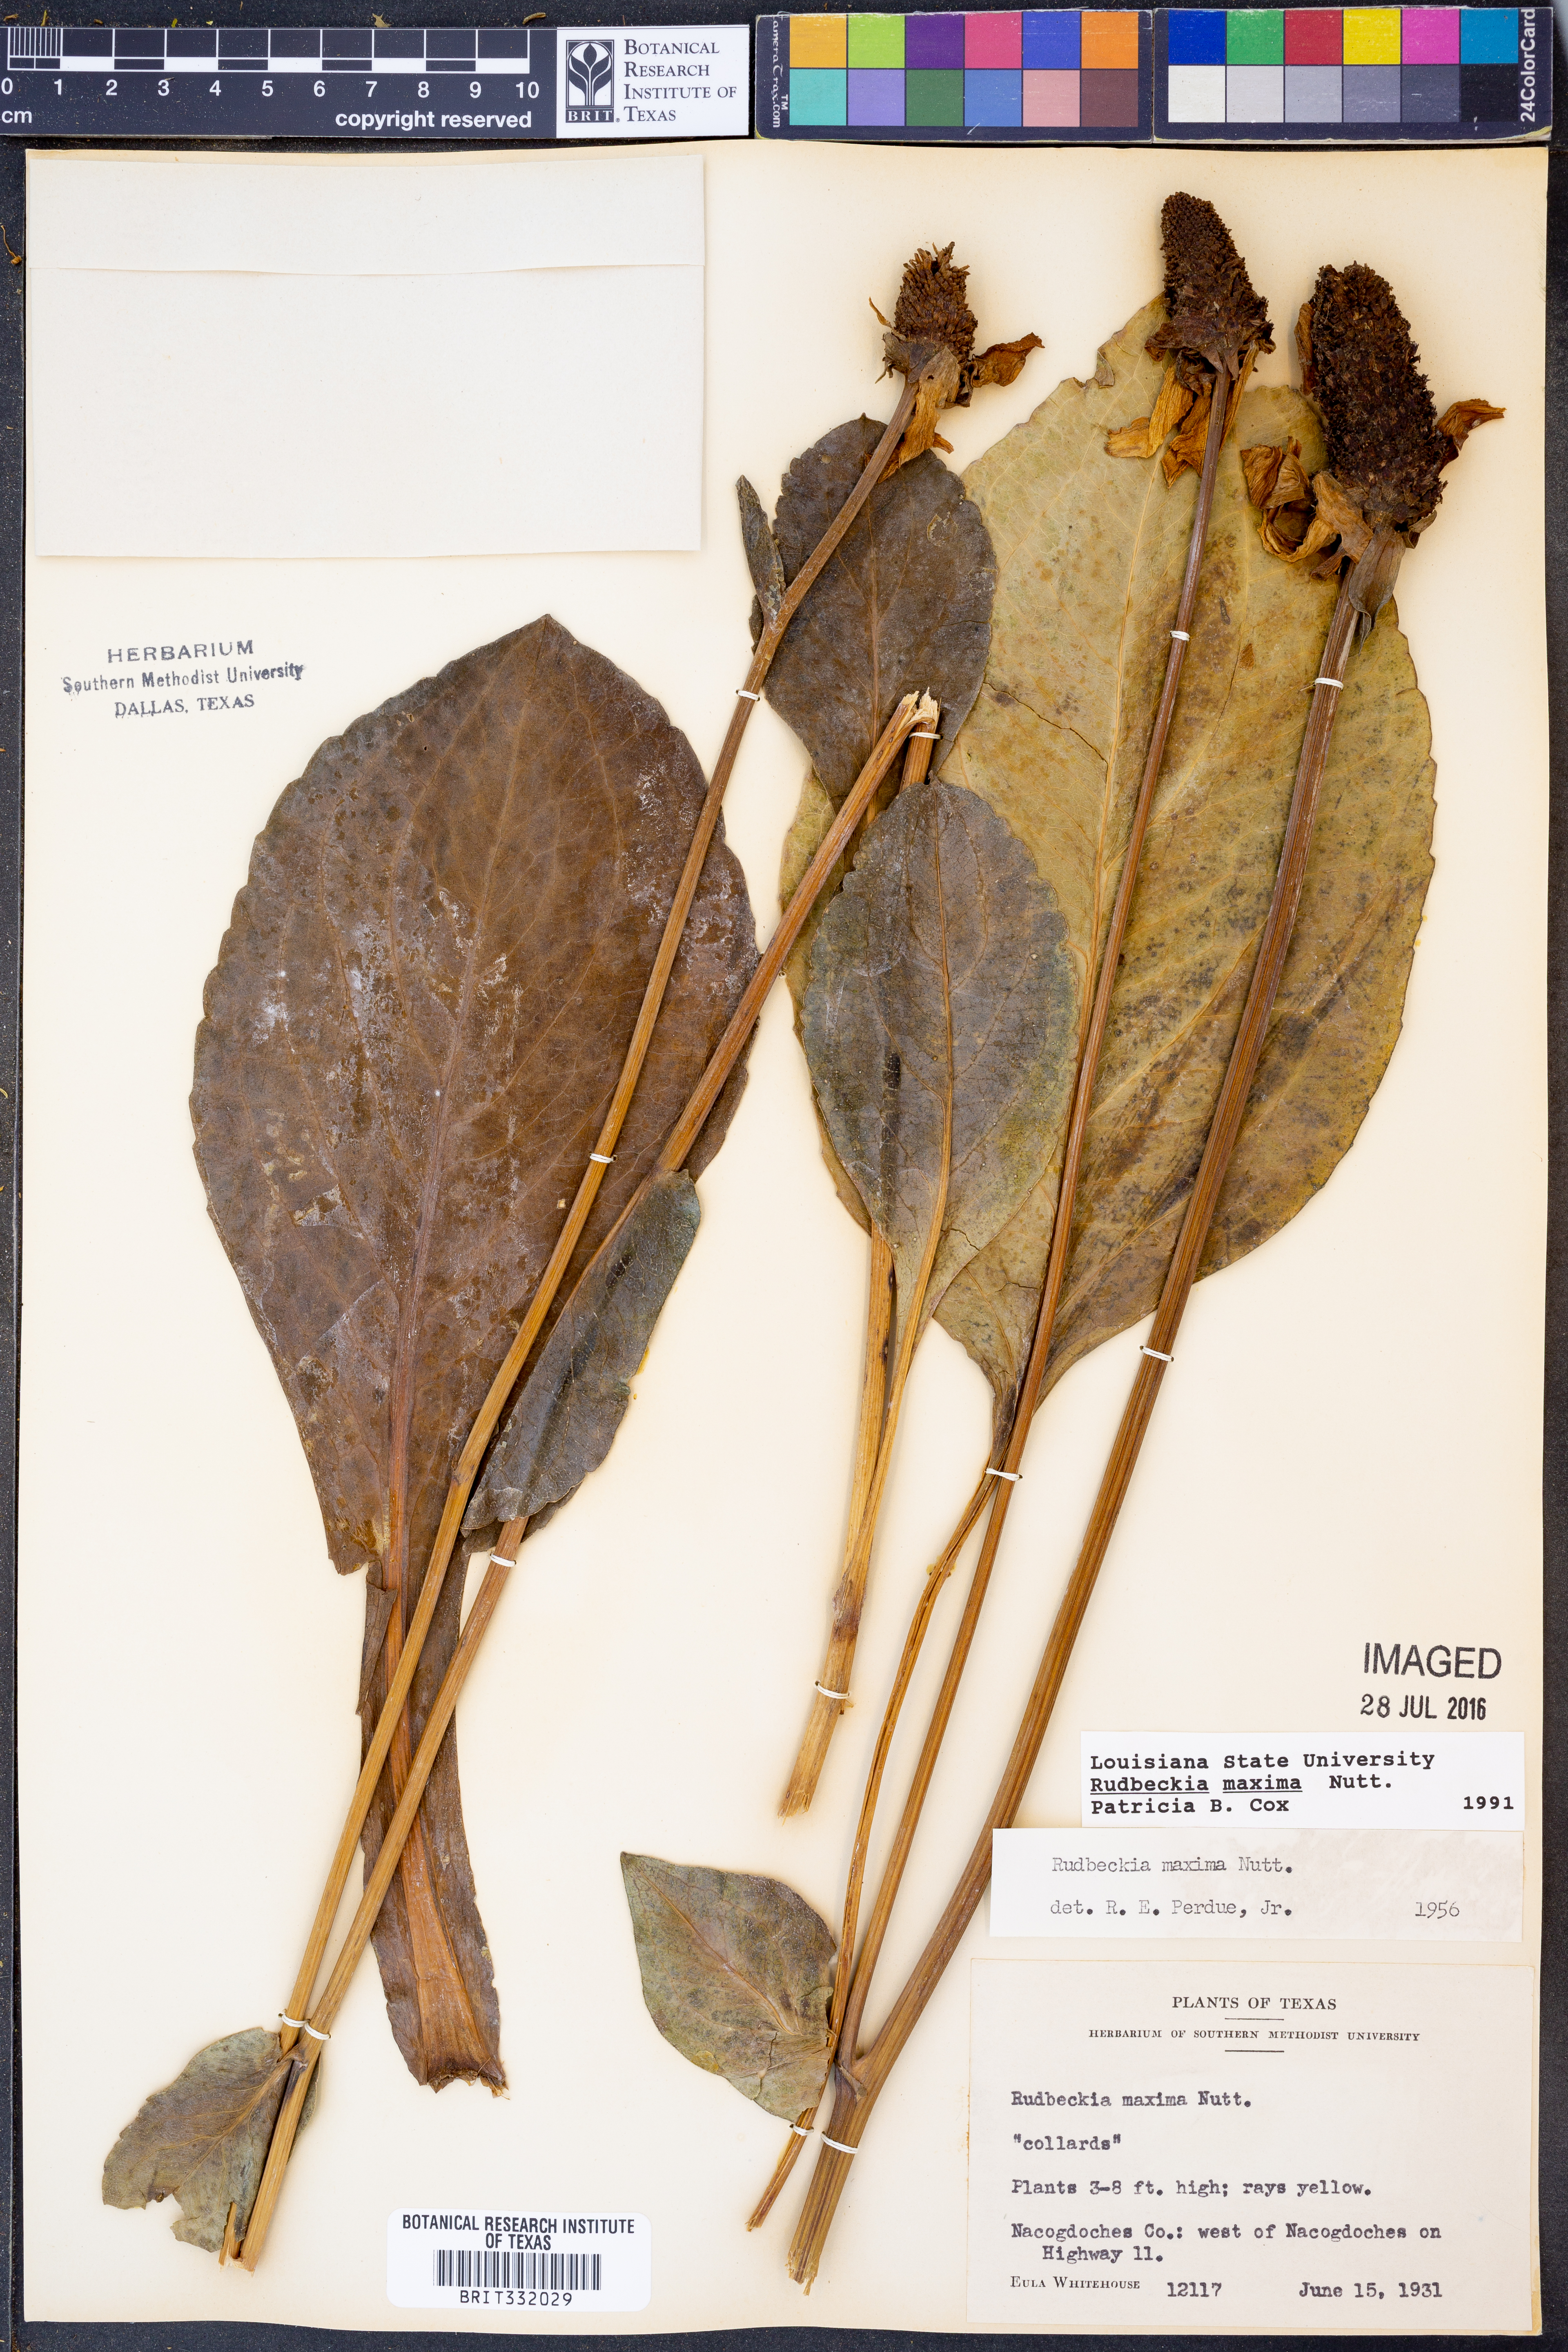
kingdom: Plantae
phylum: Tracheophyta
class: Magnoliopsida
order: Asterales
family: Asteraceae
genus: Rudbeckia
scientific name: Rudbeckia maxima
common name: Cabbage coneflower
